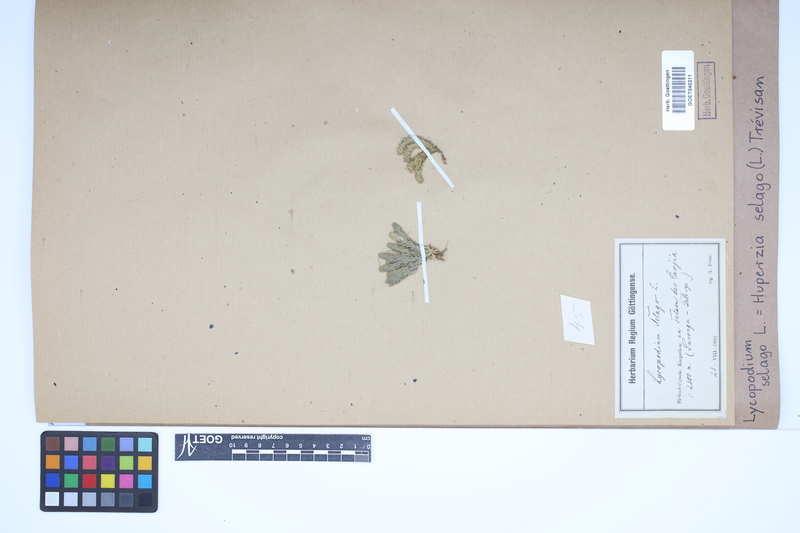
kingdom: Plantae
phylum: Tracheophyta
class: Lycopodiopsida
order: Lycopodiales
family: Lycopodiaceae
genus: Huperzia
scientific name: Huperzia selago
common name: Northern firmoss
